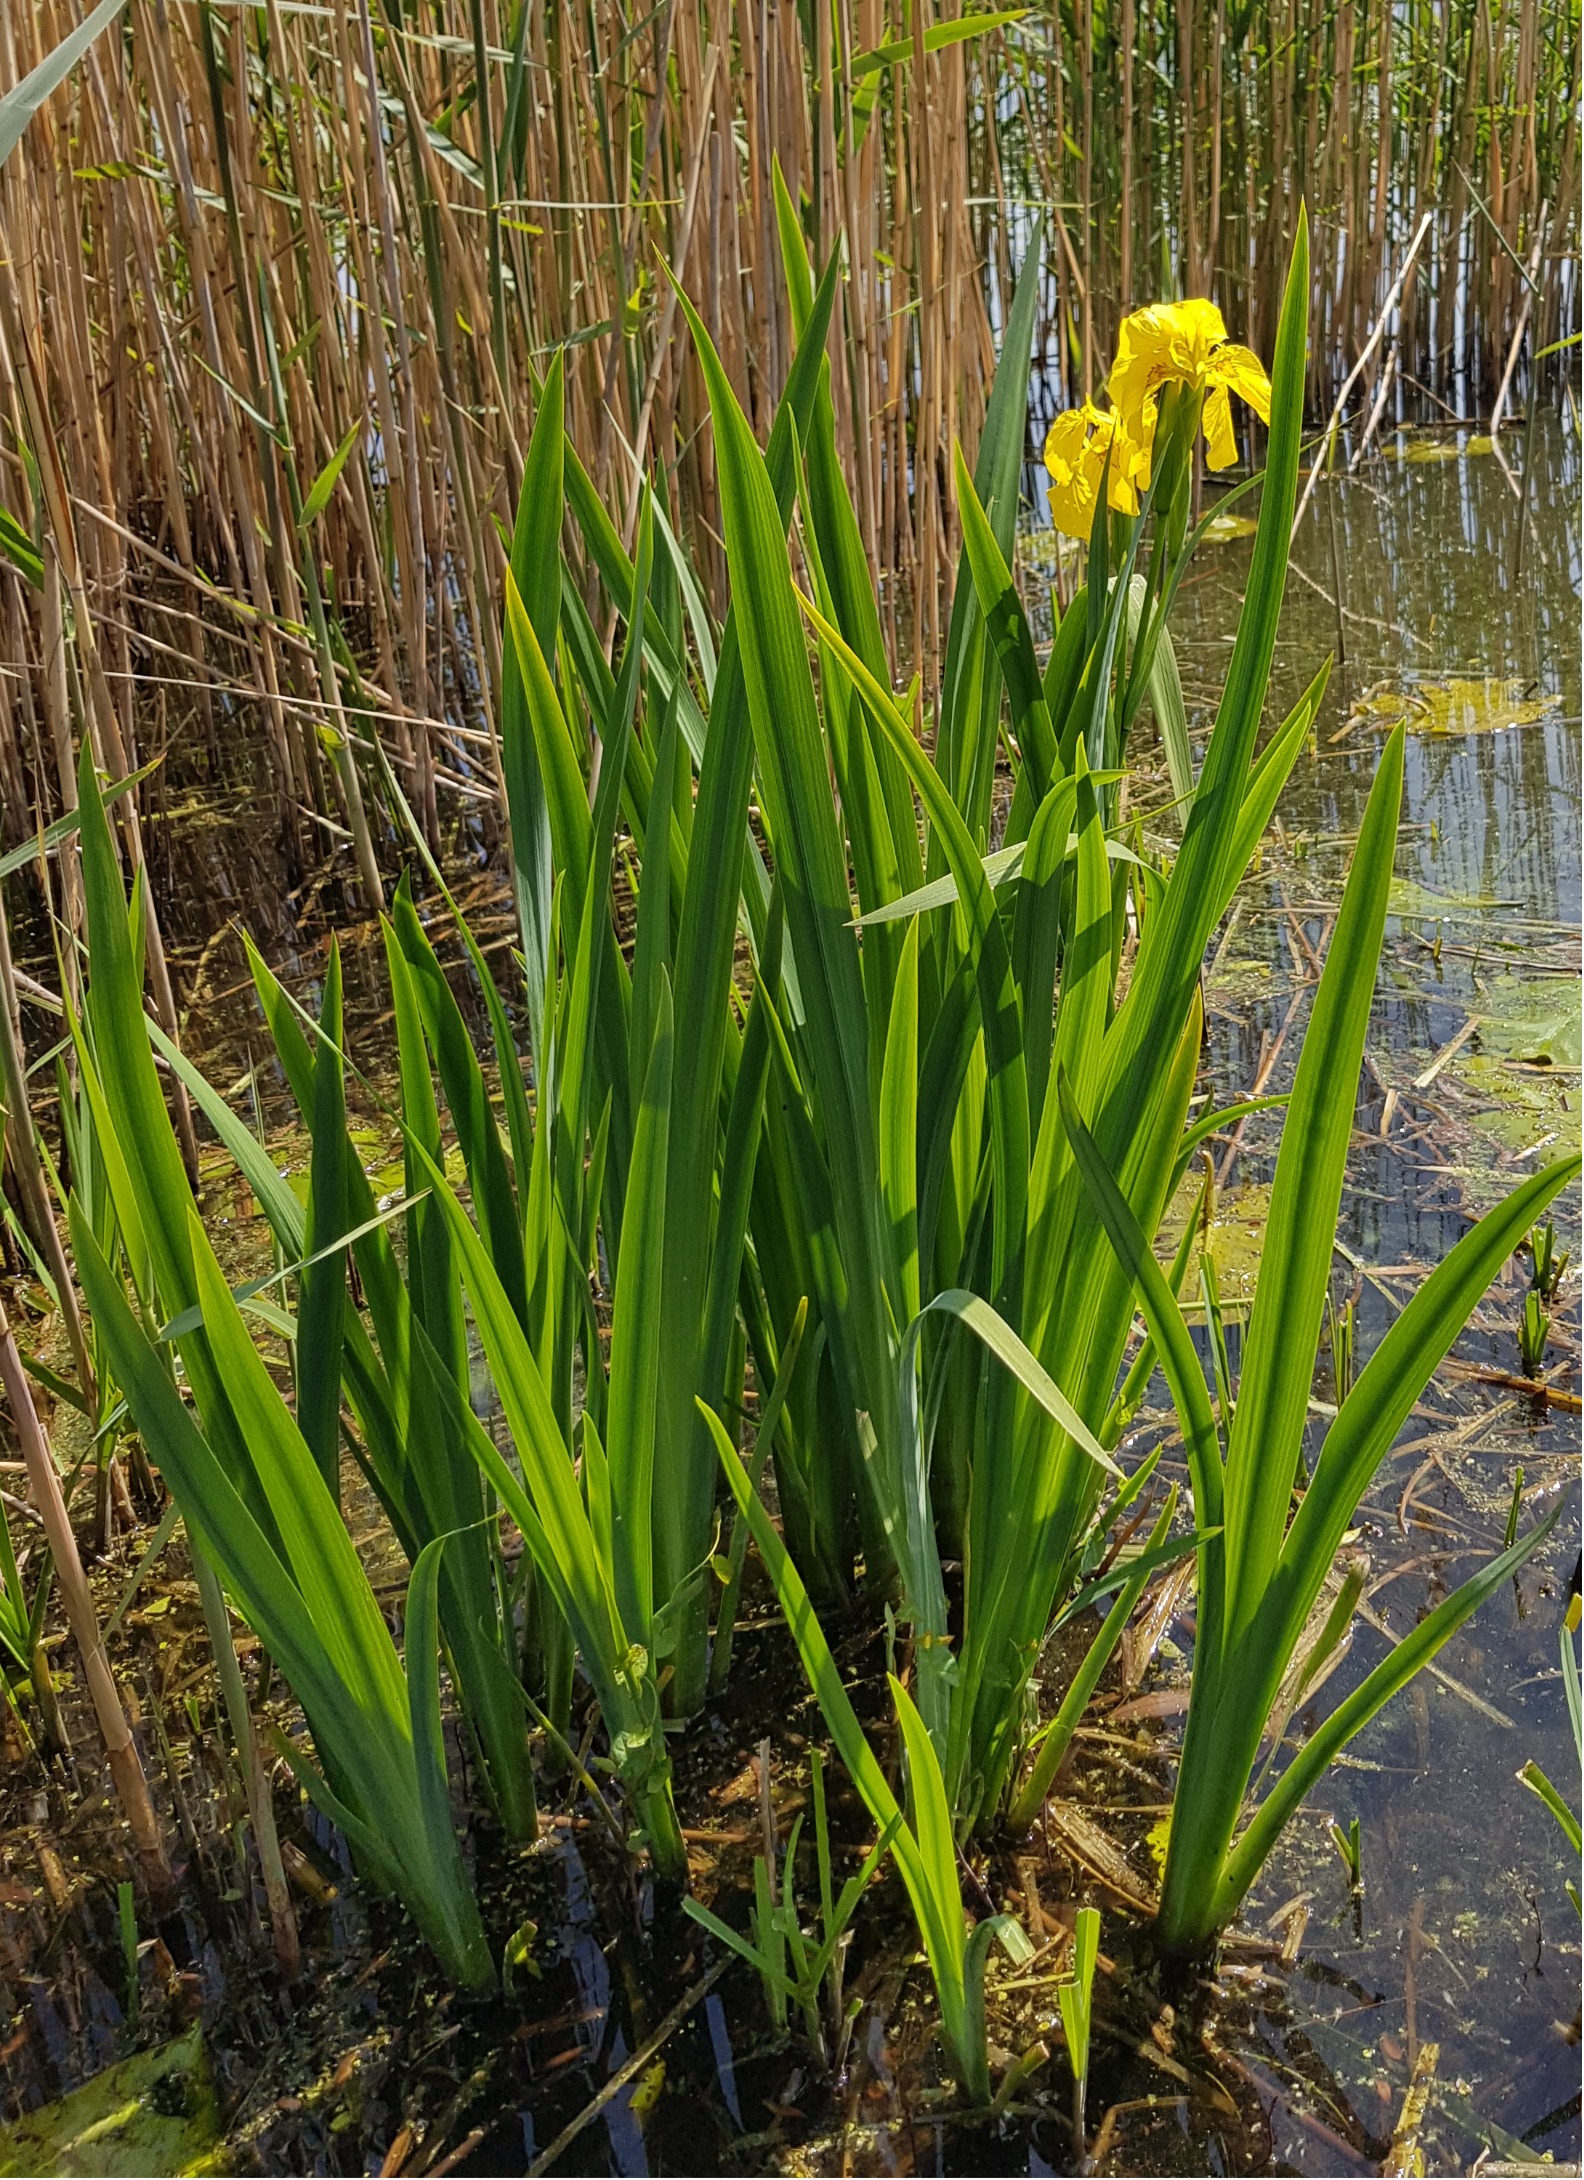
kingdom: Plantae
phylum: Tracheophyta
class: Liliopsida
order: Asparagales
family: Iridaceae
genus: Iris
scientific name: Iris pseudacorus
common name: Gul iris
